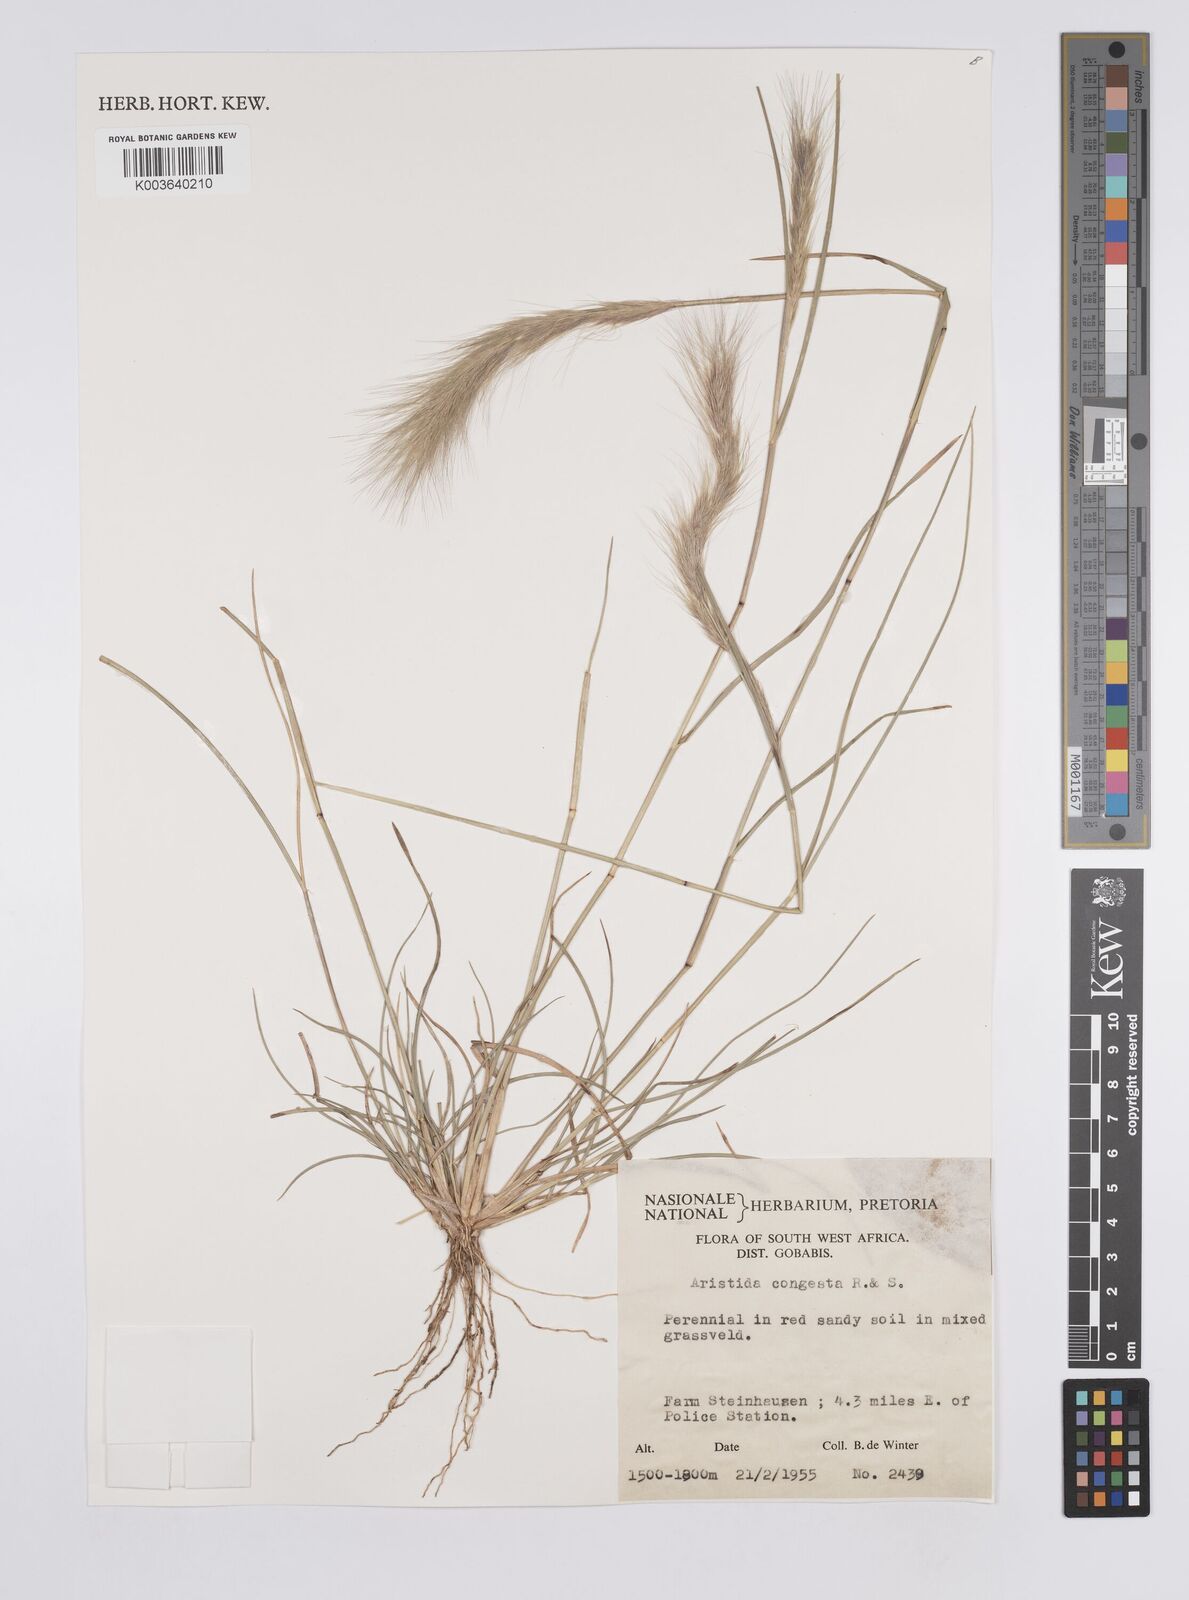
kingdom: Plantae
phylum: Tracheophyta
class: Liliopsida
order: Poales
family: Poaceae
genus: Aristida
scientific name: Aristida congesta
